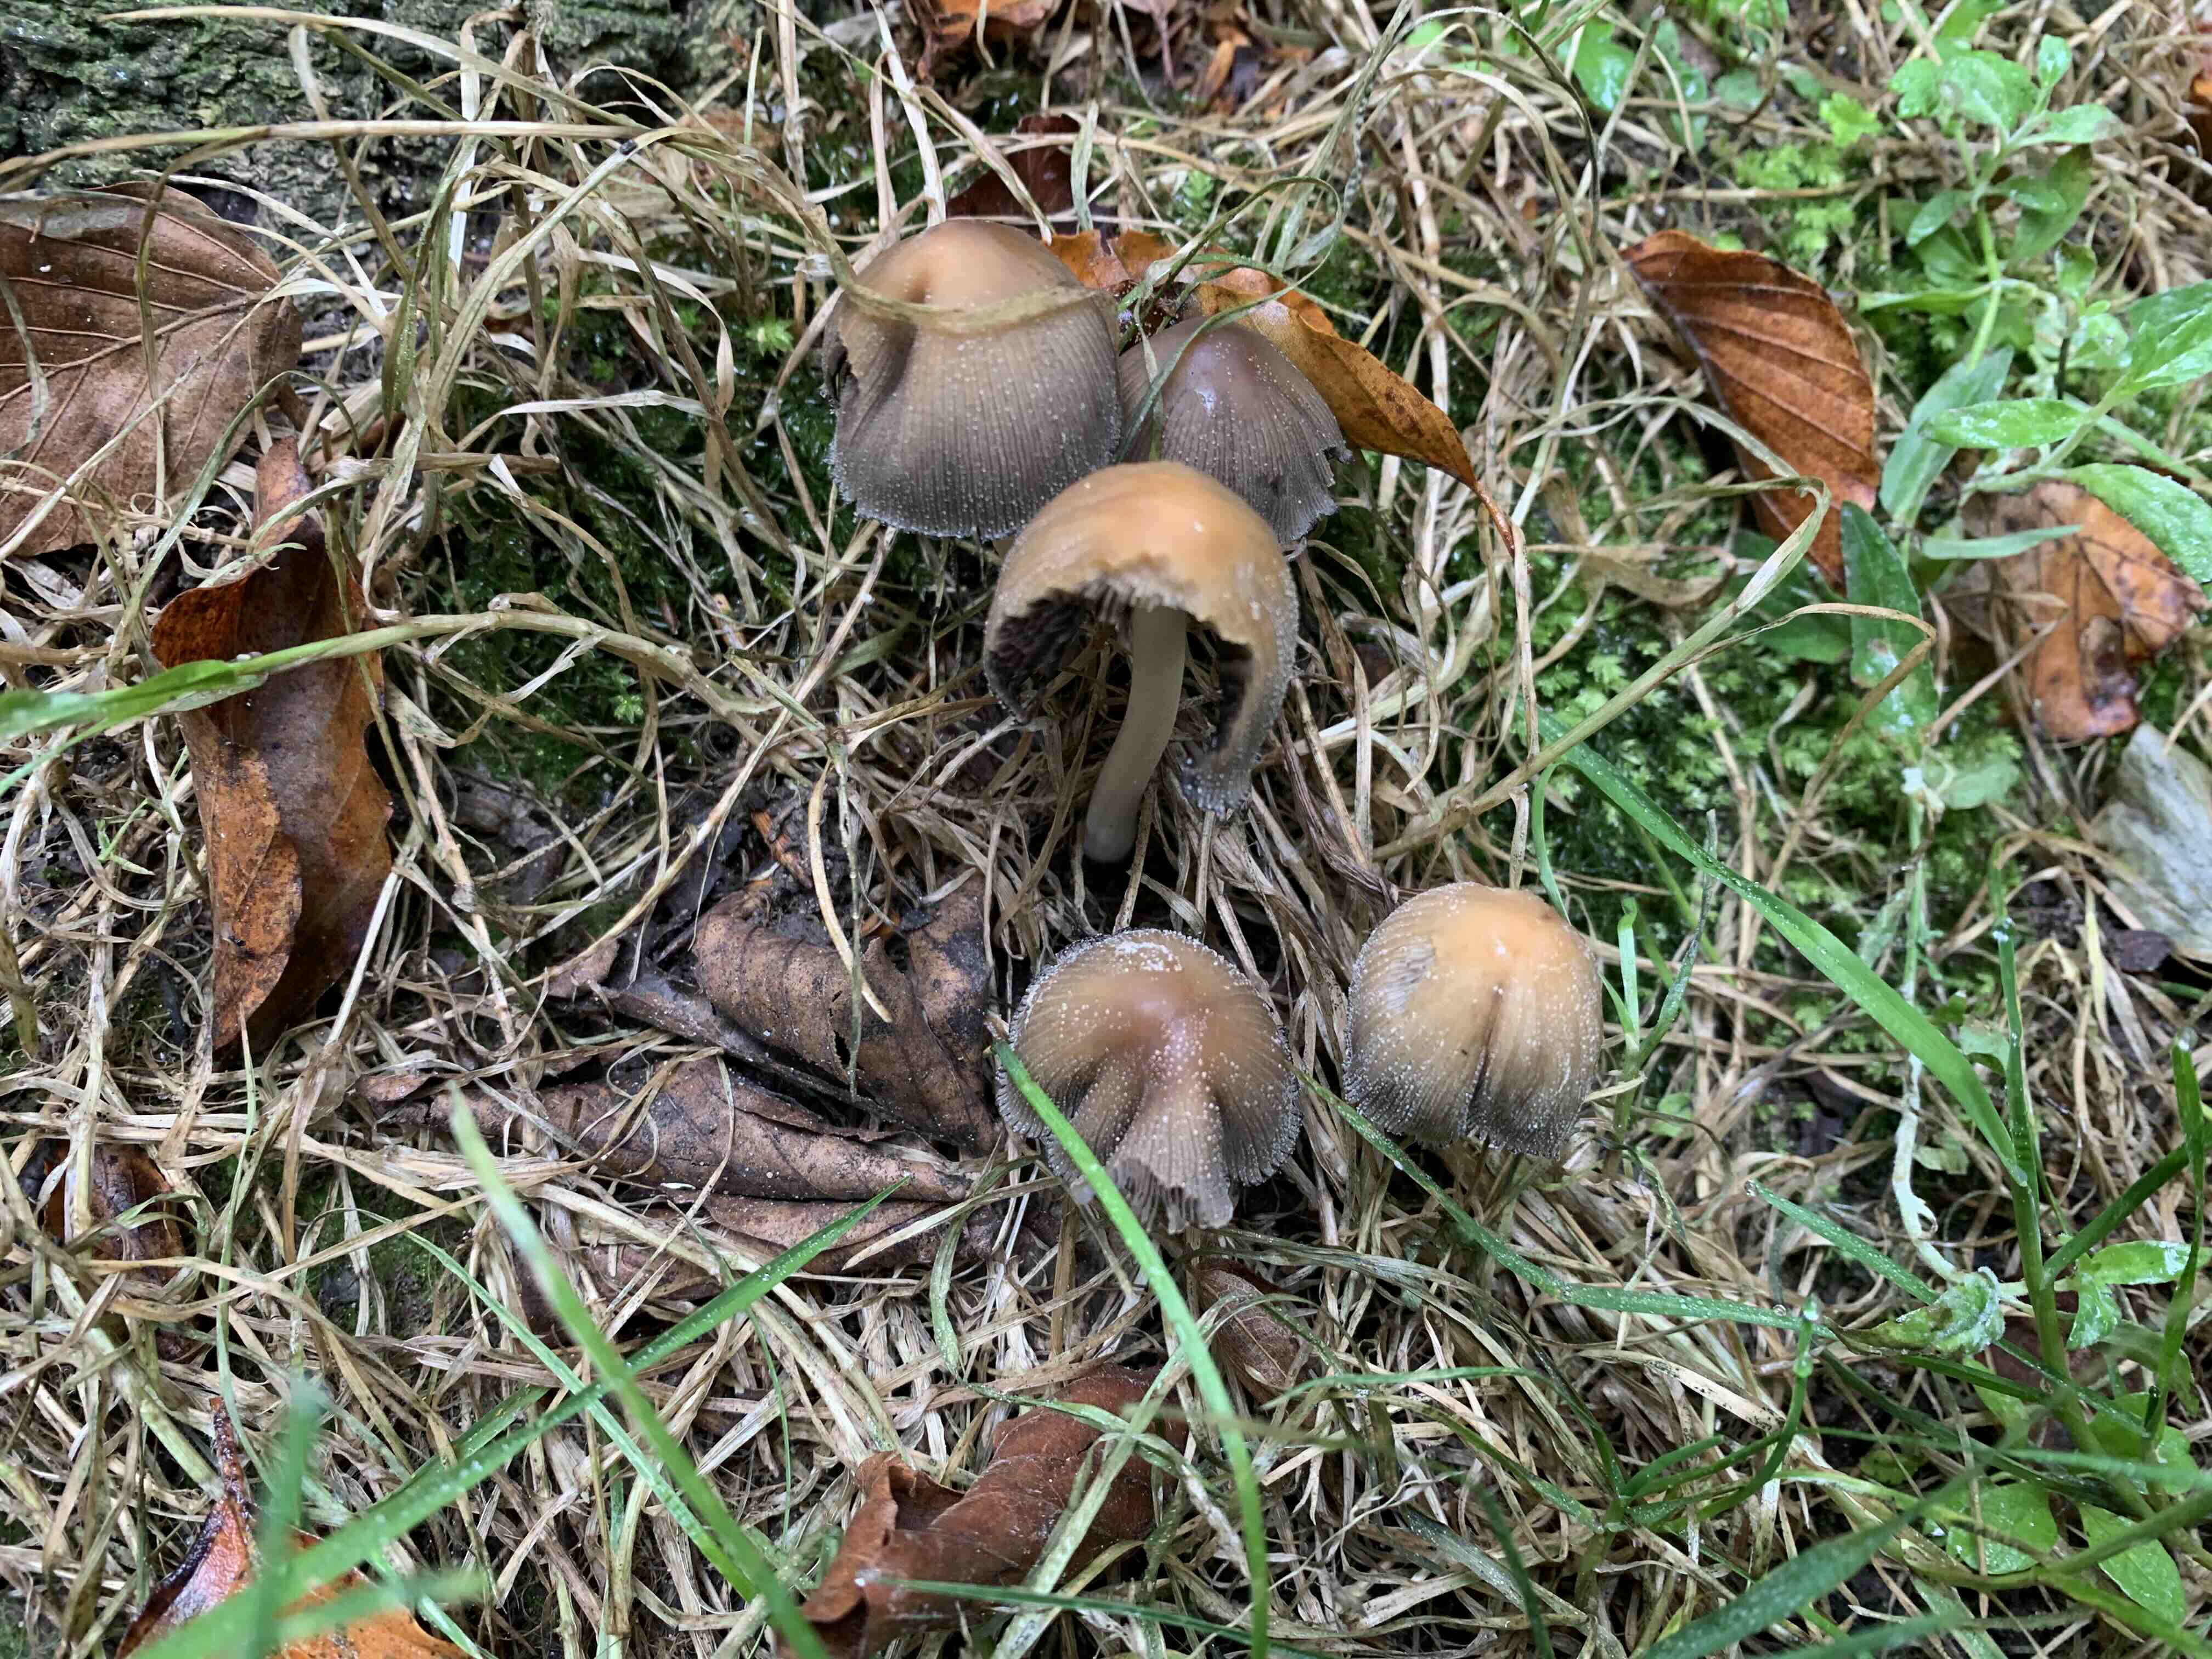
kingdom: Fungi
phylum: Basidiomycota
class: Agaricomycetes
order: Agaricales
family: Psathyrellaceae
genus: Coprinellus
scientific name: Coprinellus micaceus
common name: glimmer-blækhat
